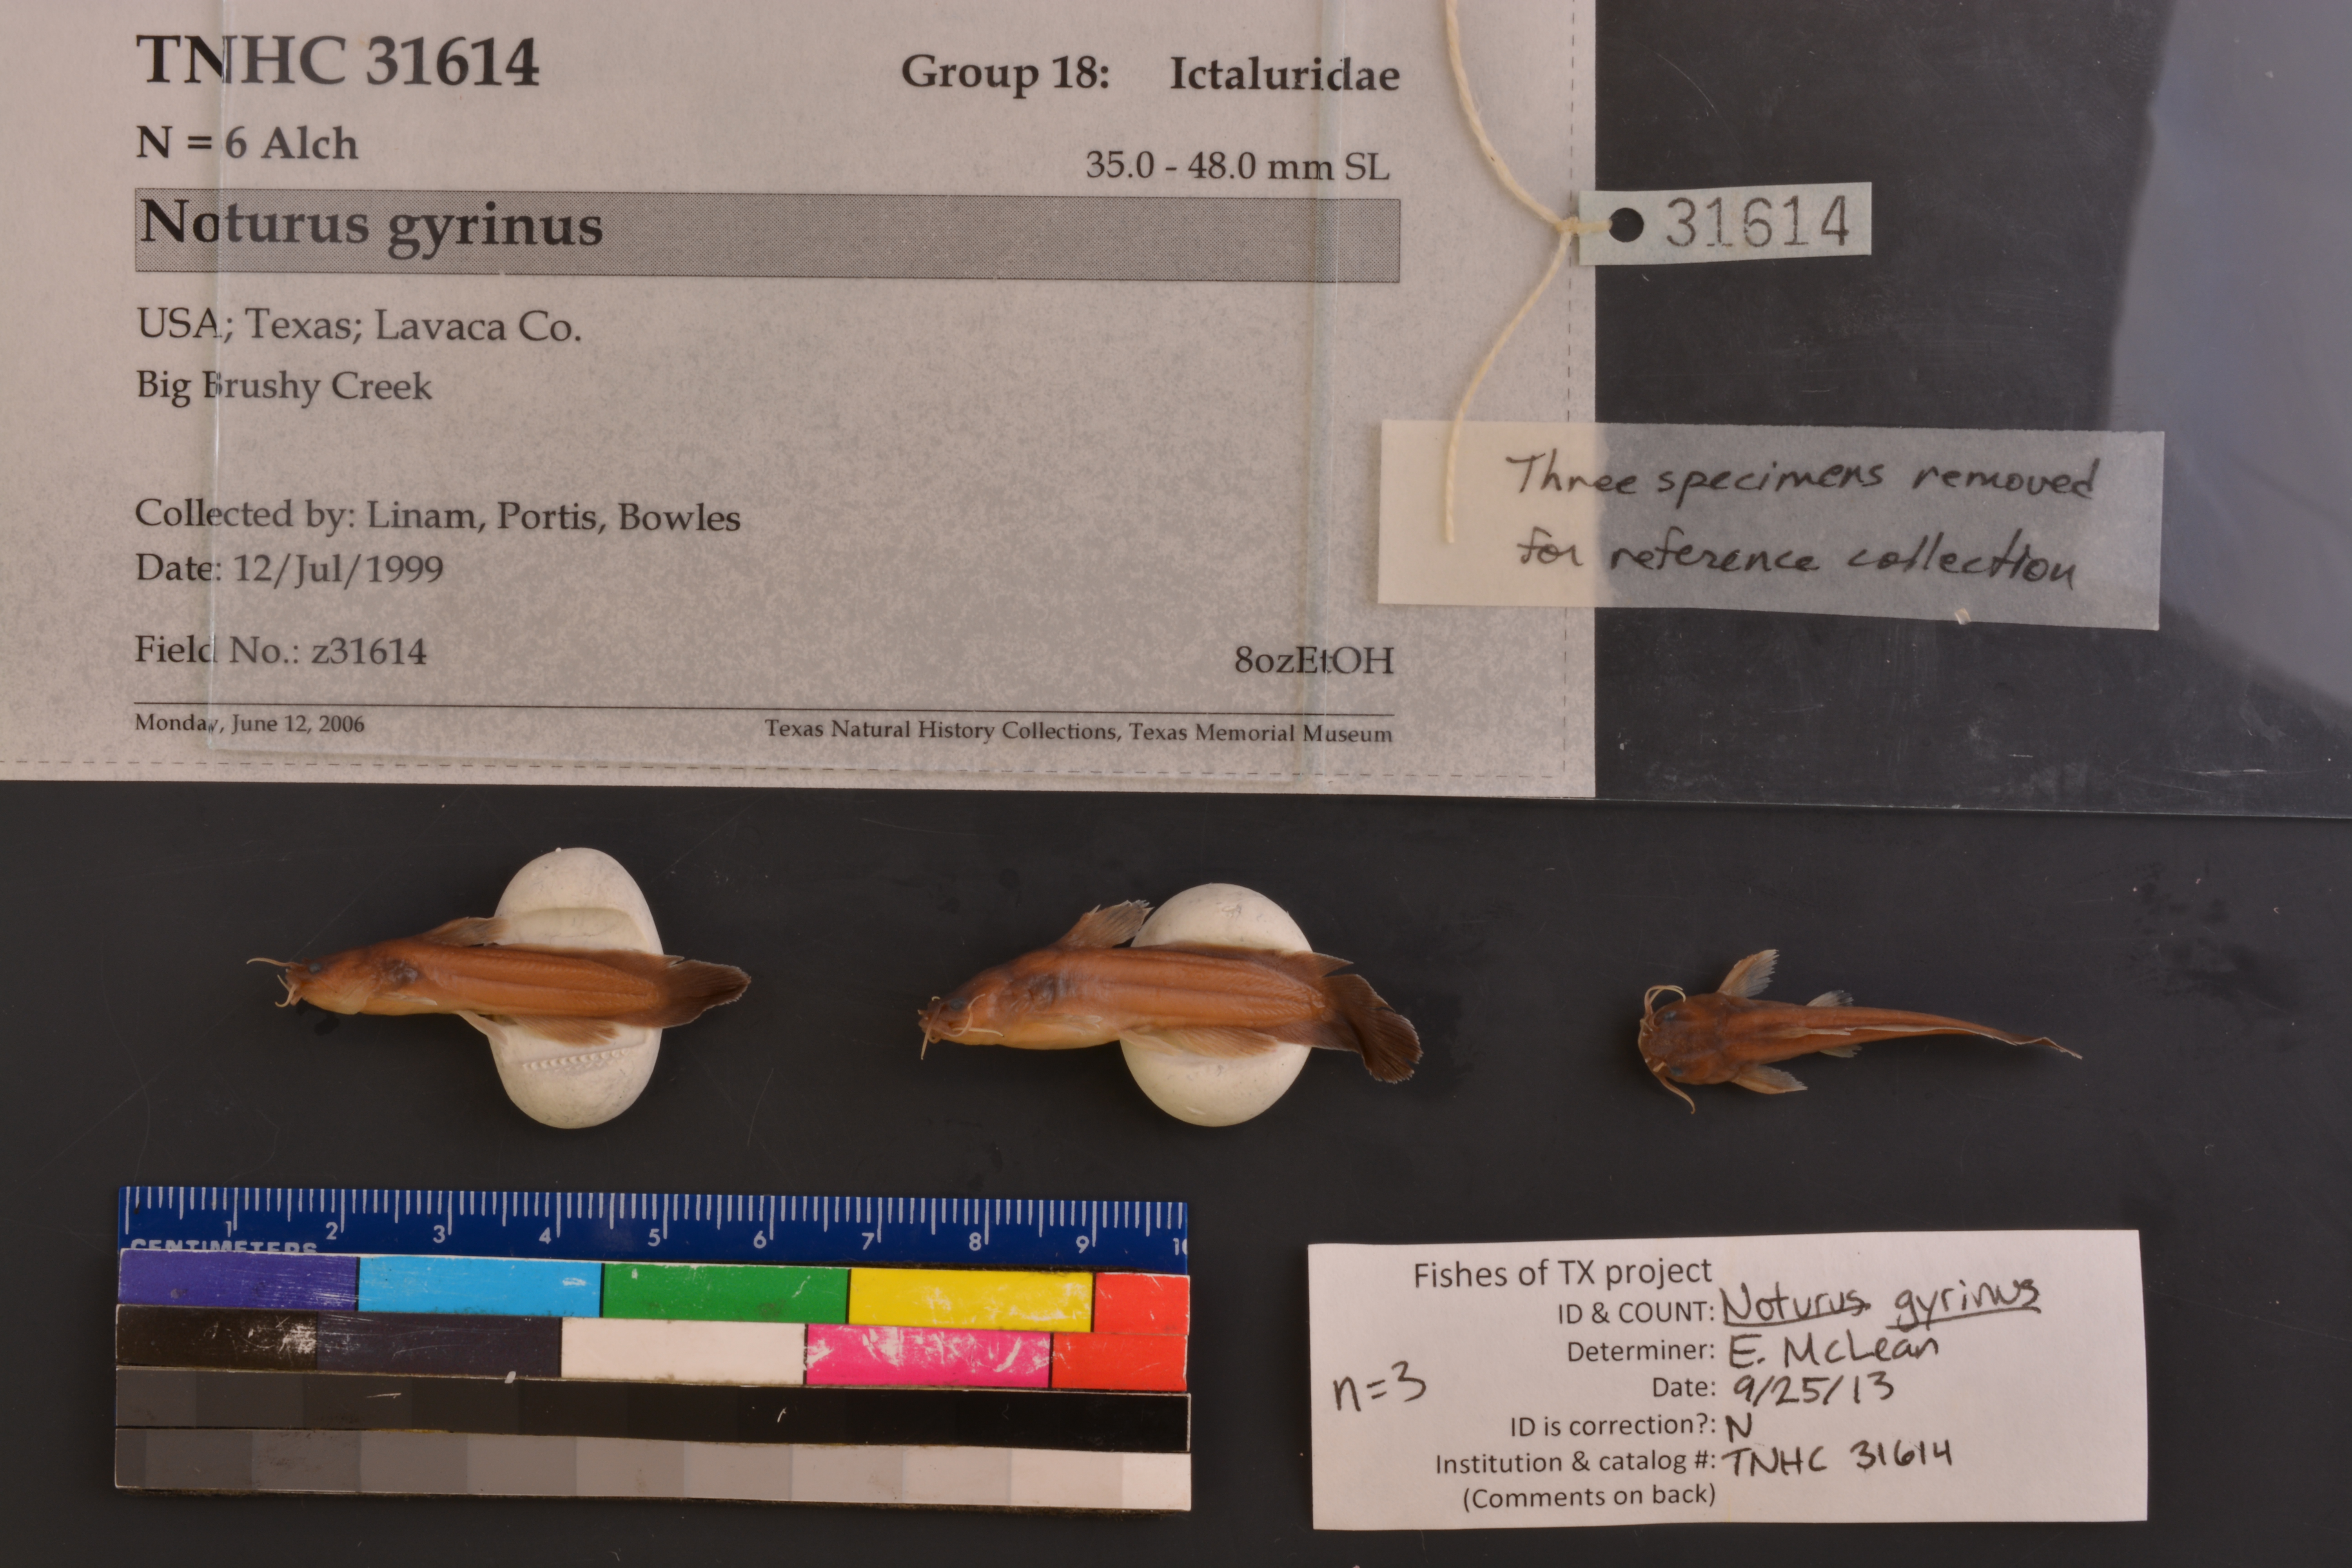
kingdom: Animalia
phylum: Chordata
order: Siluriformes
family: Ictaluridae
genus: Noturus
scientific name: Noturus gyrinus
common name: Tadpole madtom
